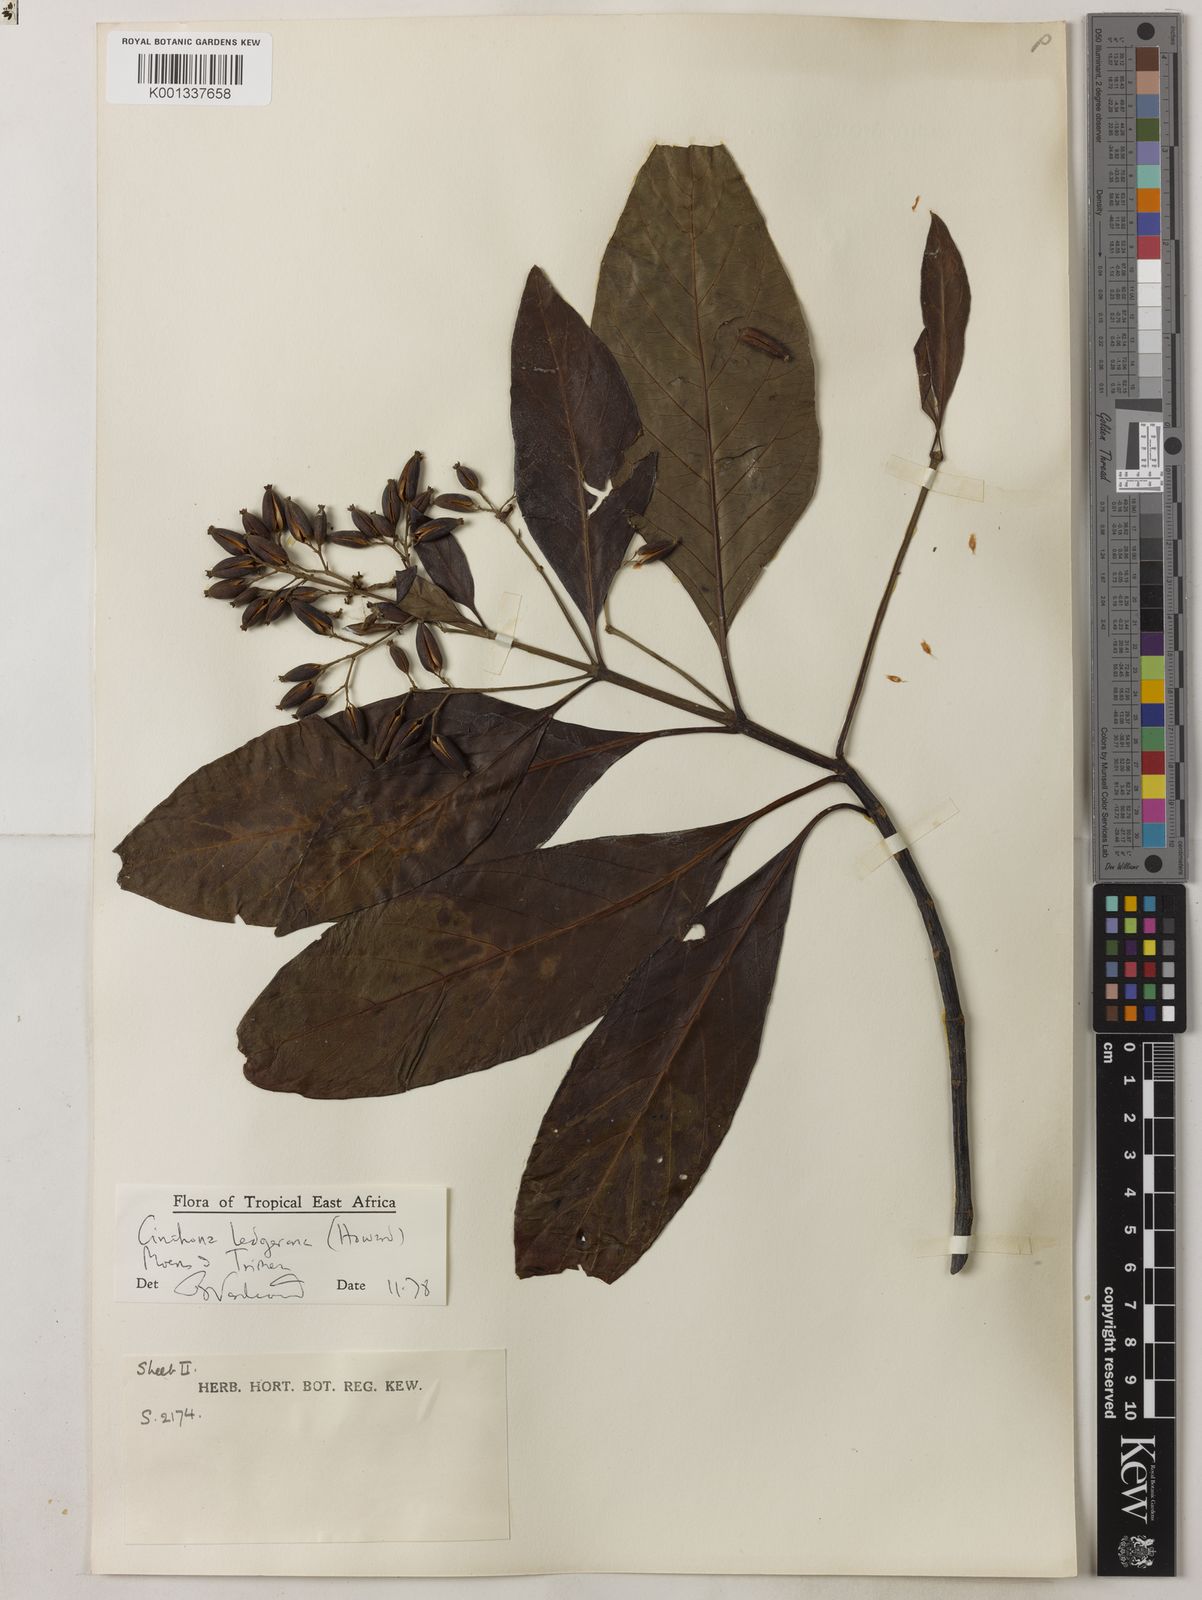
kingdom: Plantae
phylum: Tracheophyta
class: Magnoliopsida
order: Gentianales
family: Rubiaceae
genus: Cinchona
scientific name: Cinchona calisaya
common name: Ledgerbark
